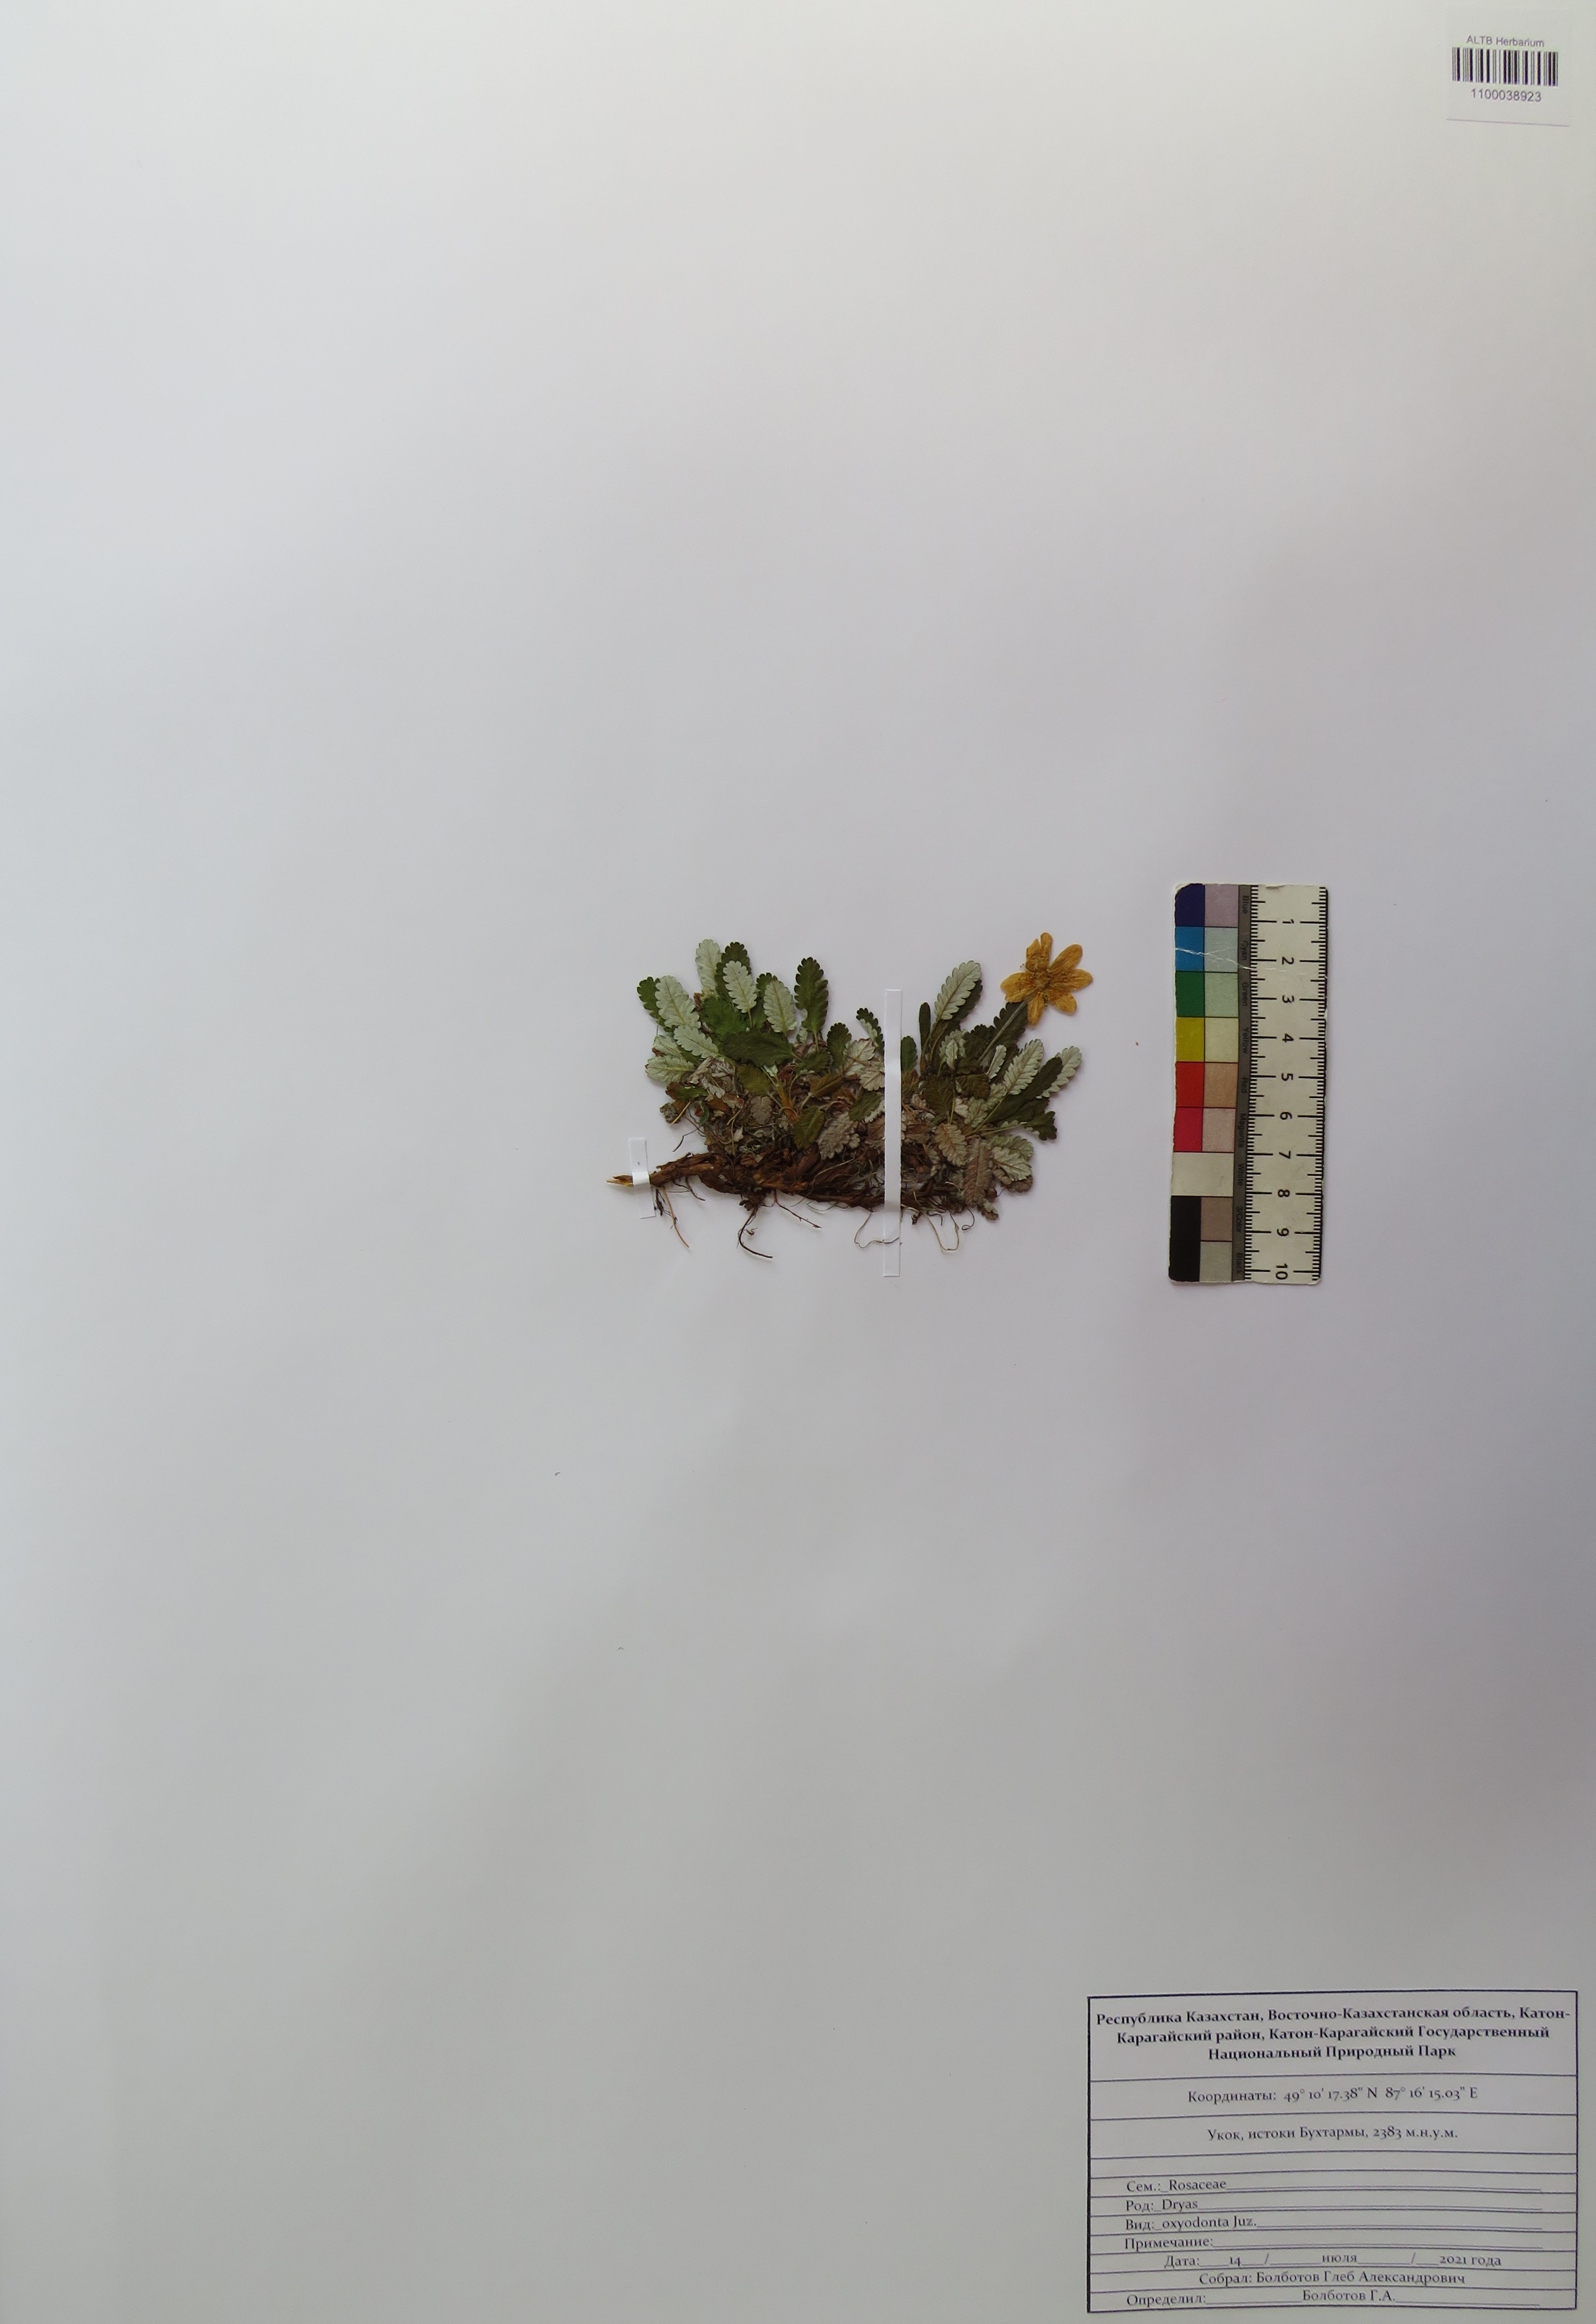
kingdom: Plantae
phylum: Tracheophyta
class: Magnoliopsida
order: Rosales
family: Rosaceae
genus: Dryas
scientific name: Dryas octopetala
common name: Eight-petal mountain-avens
